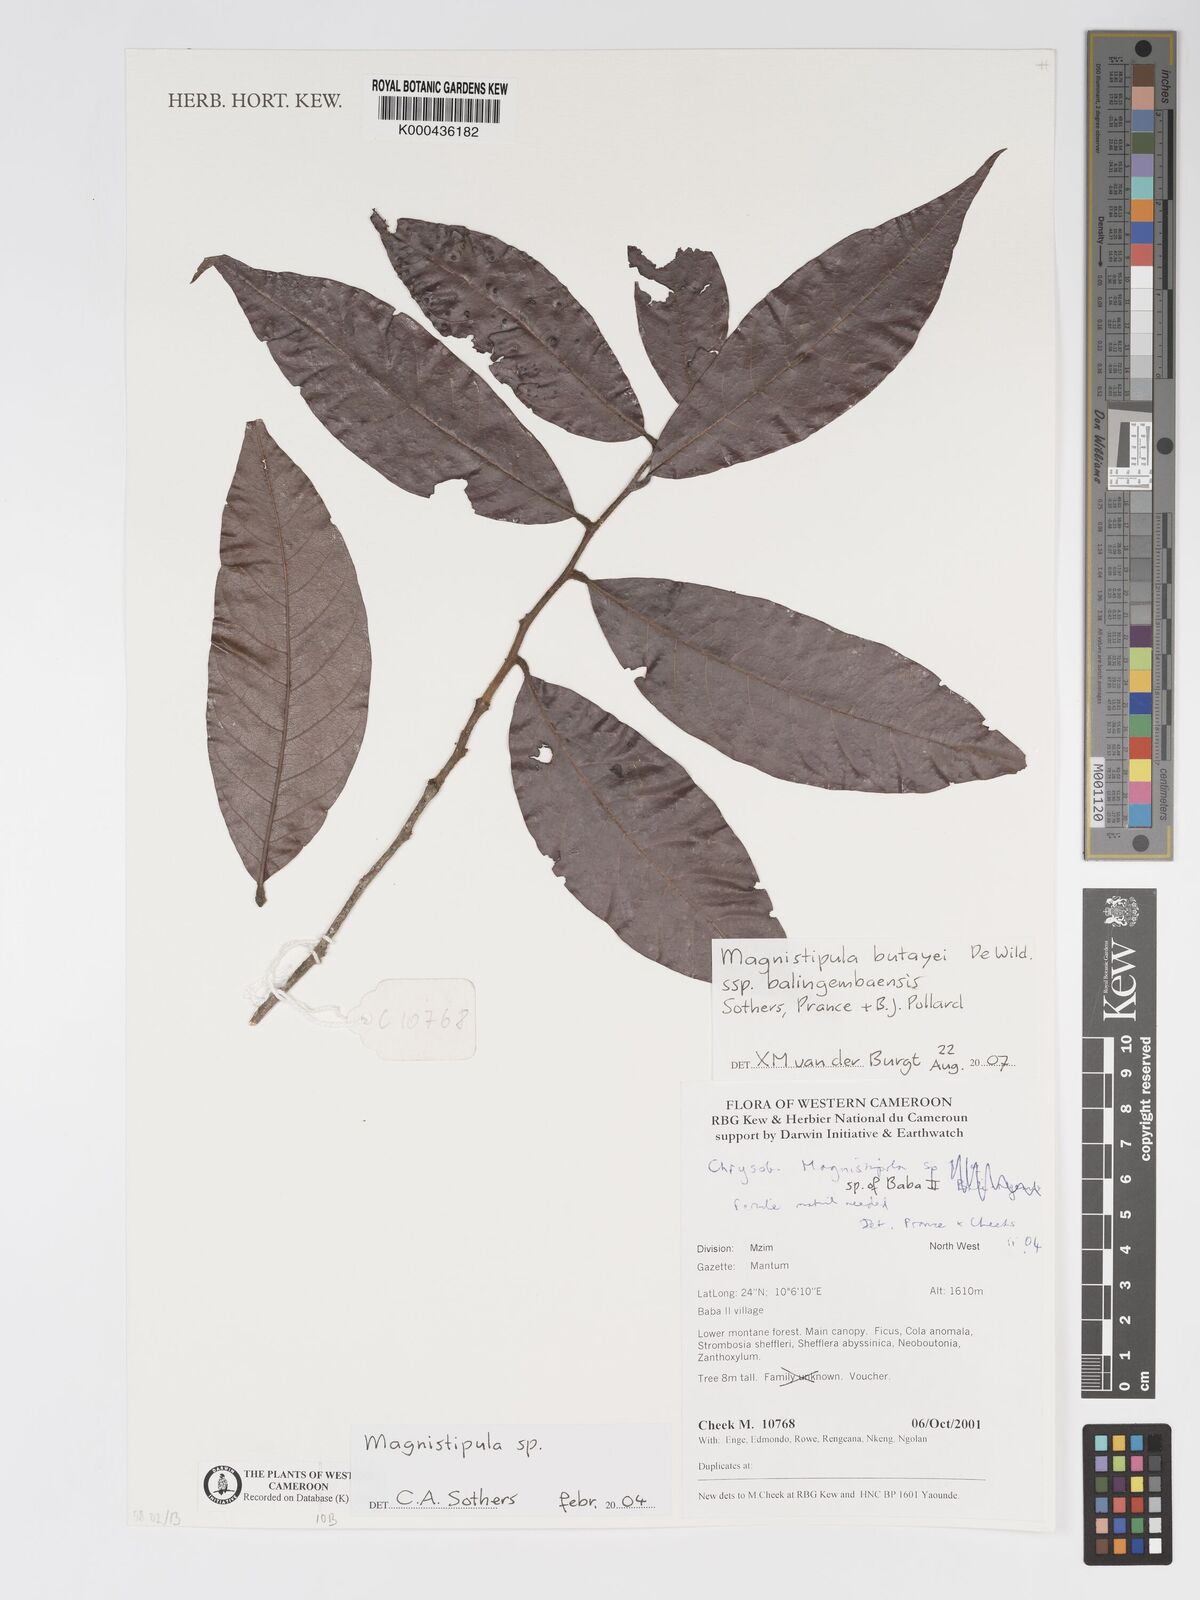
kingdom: Plantae
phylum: Tracheophyta
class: Magnoliopsida
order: Malpighiales
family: Chrysobalanaceae
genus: Magnistipula
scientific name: Magnistipula butayei
